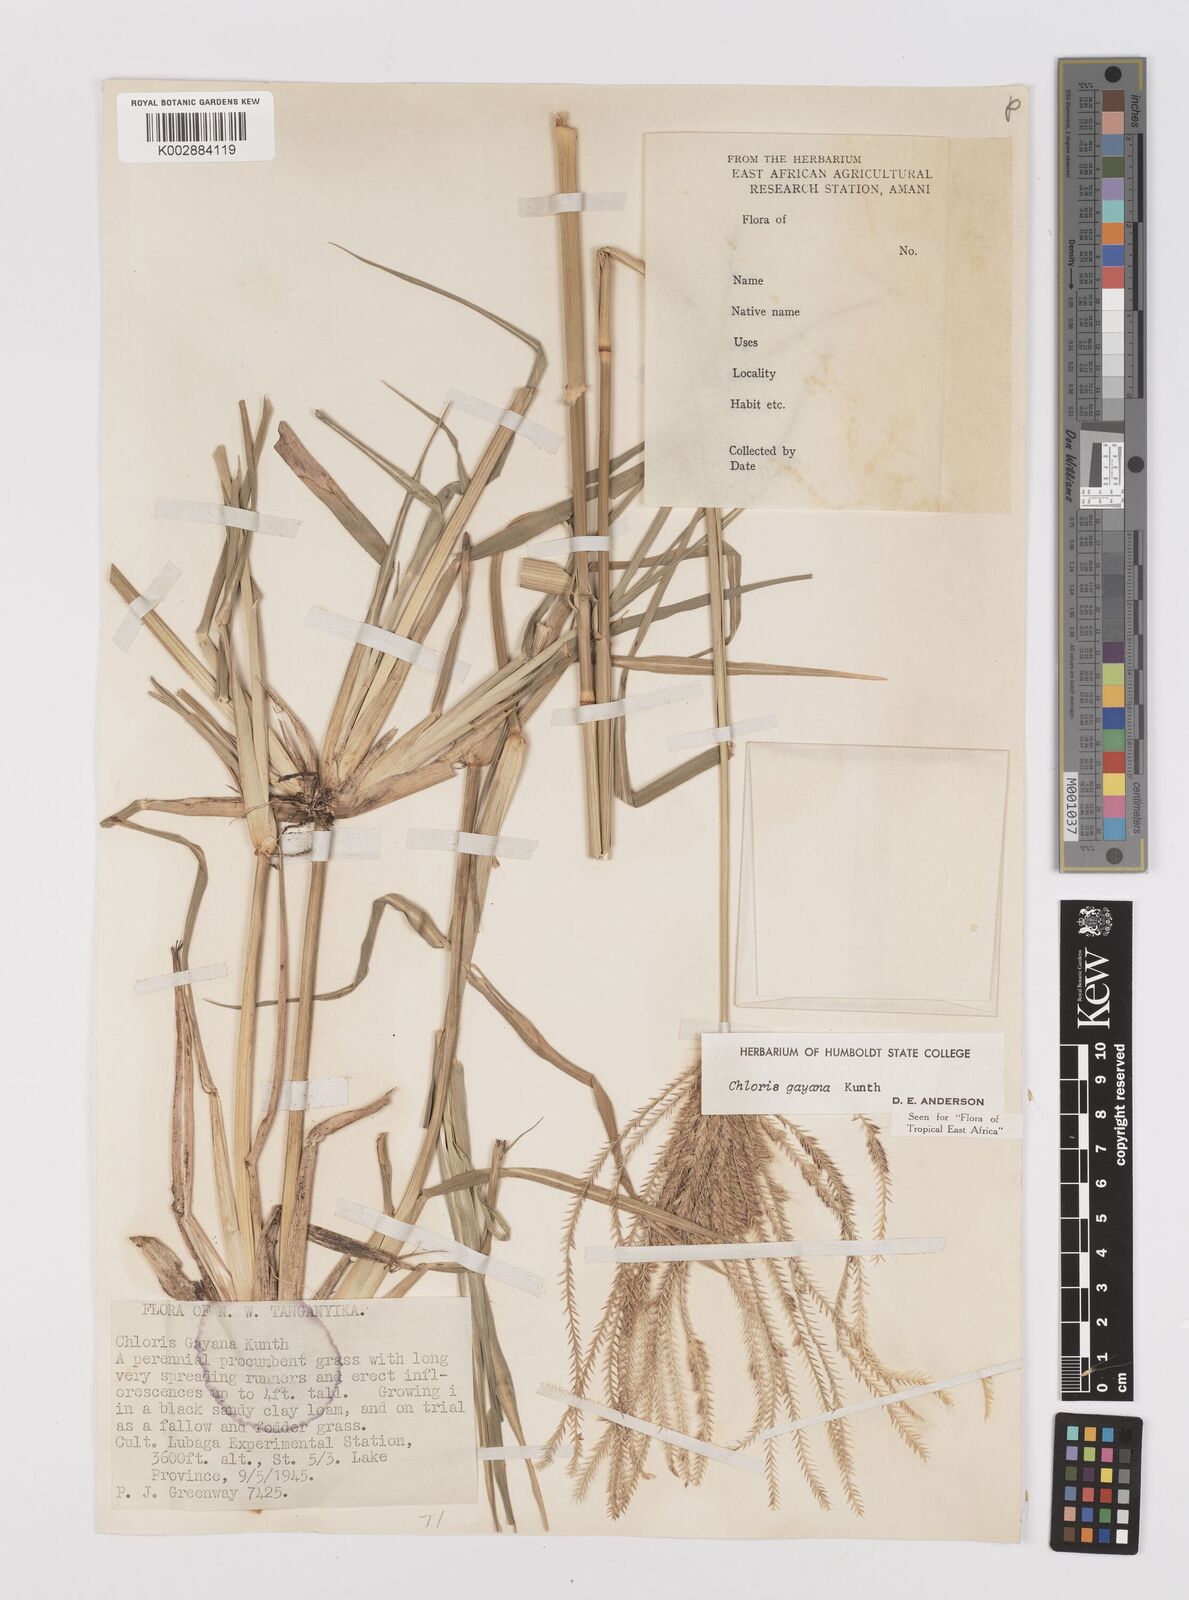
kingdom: Plantae
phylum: Tracheophyta
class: Liliopsida
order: Poales
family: Poaceae
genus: Chloris
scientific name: Chloris gayana
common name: Rhodes grass
